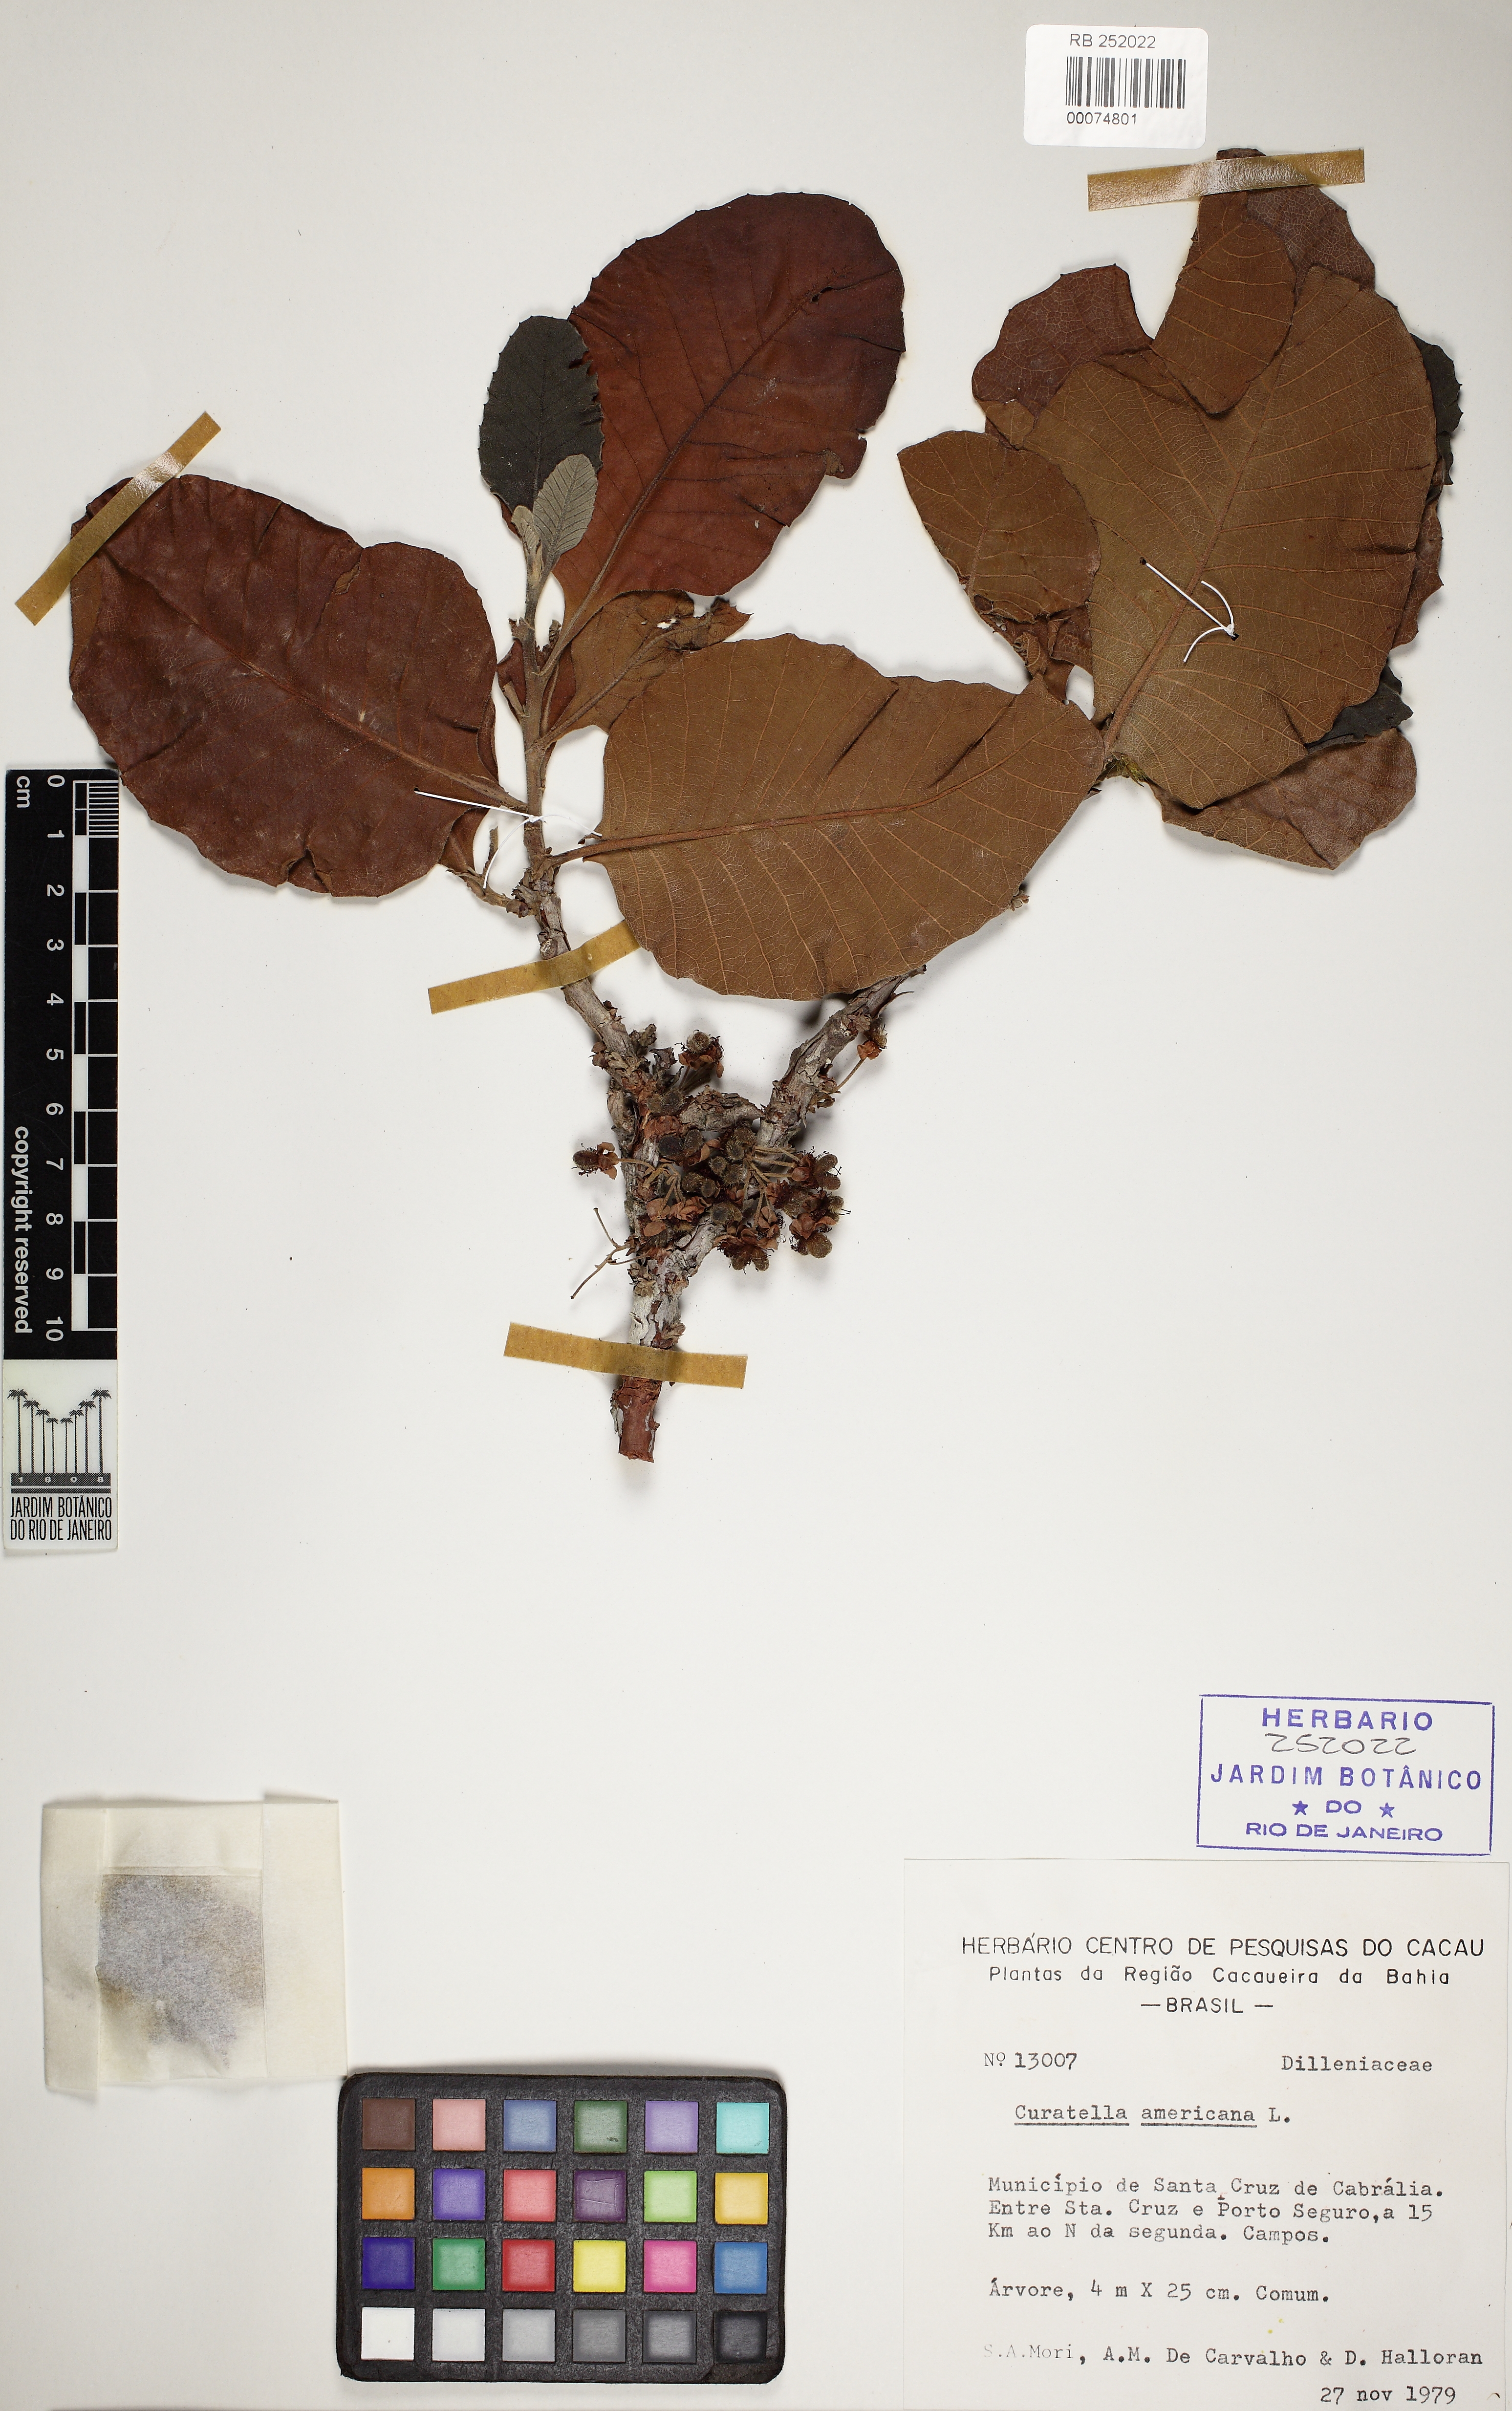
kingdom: Plantae
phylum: Tracheophyta
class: Magnoliopsida
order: Dilleniales
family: Dilleniaceae
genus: Curatella
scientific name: Curatella americana
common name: Sandpaper tree
